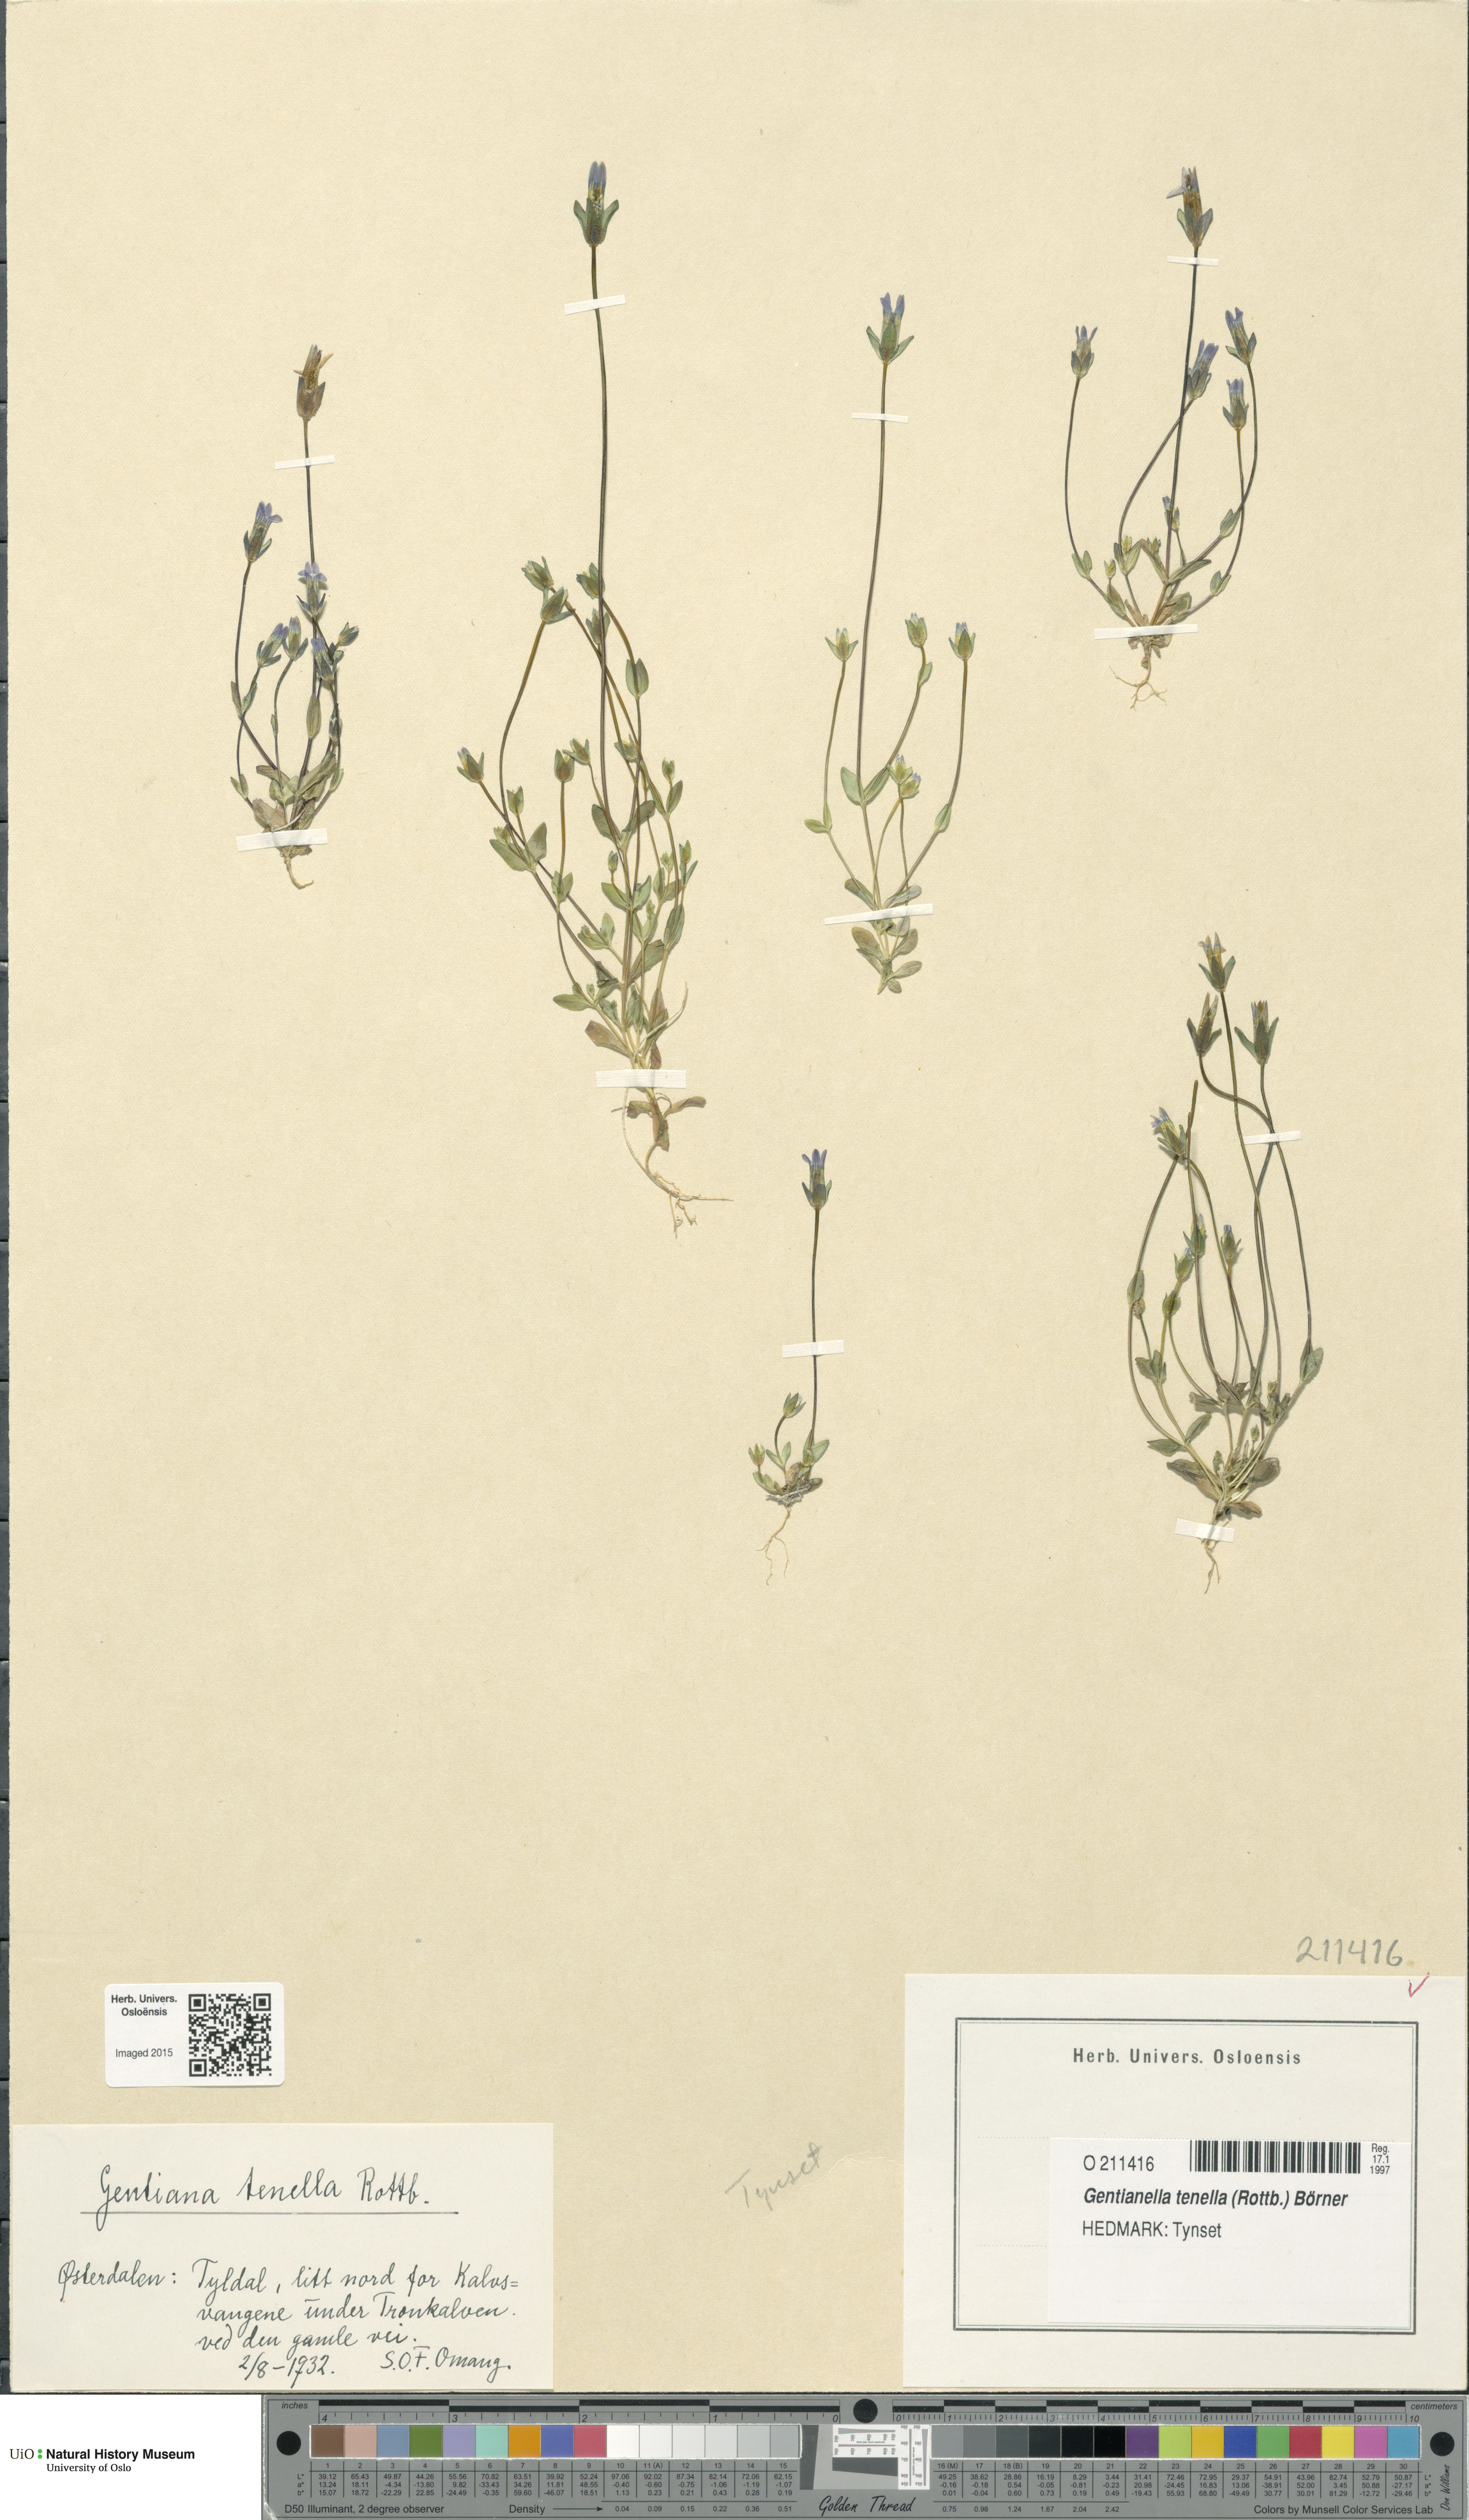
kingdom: Plantae
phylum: Tracheophyta
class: Magnoliopsida
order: Gentianales
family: Gentianaceae
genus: Comastoma
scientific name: Comastoma tenellum
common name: Dane's dwarf gentian
